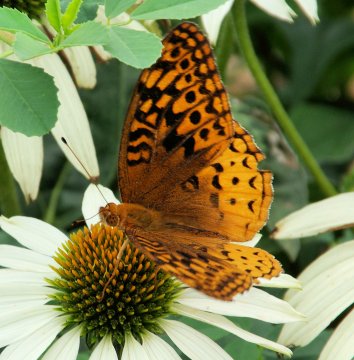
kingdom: Animalia
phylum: Arthropoda
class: Insecta
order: Lepidoptera
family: Nymphalidae
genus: Speyeria
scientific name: Speyeria cybele
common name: Great Spangled Fritillary
